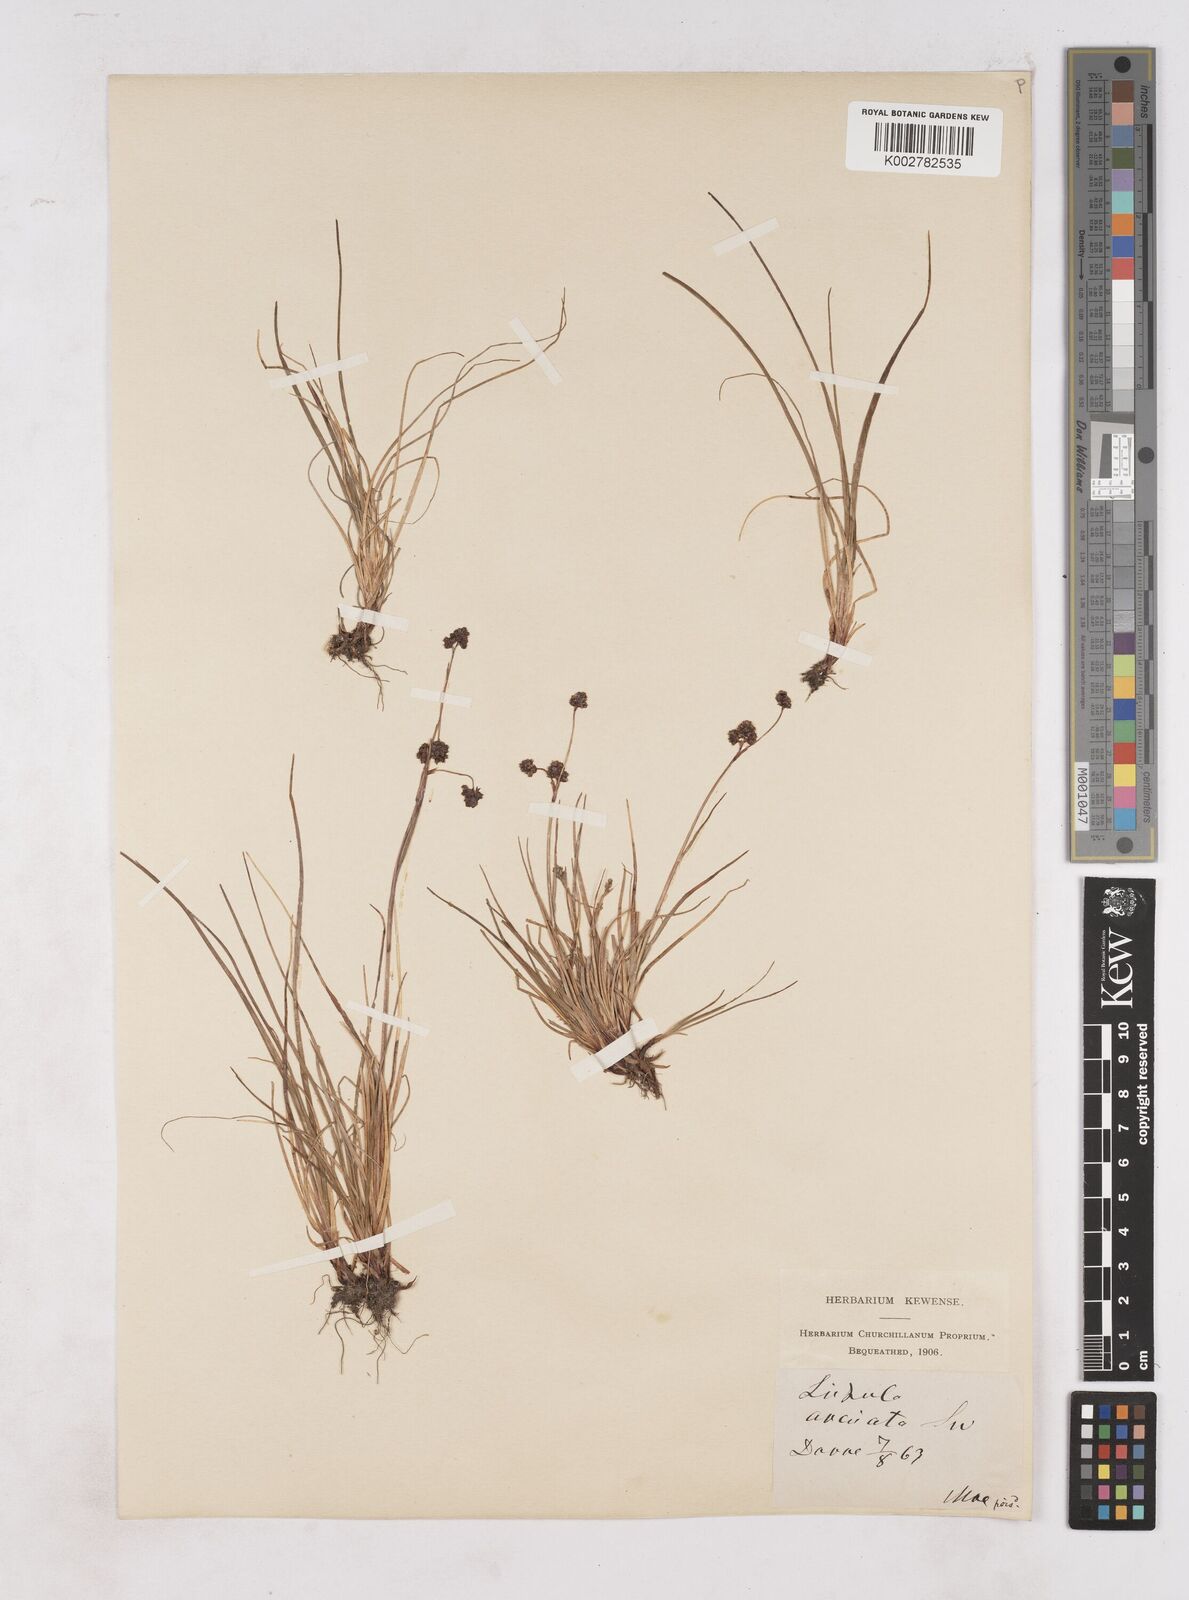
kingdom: Plantae
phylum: Tracheophyta
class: Liliopsida
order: Poales
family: Juncaceae
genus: Luzula
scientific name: Luzula arcuata
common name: Curved wood-rush
